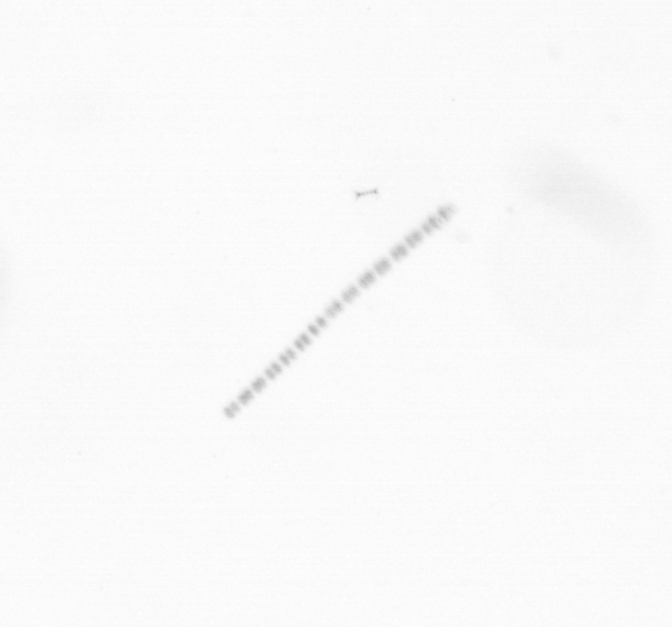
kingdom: Chromista
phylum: Ochrophyta
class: Bacillariophyceae
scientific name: Bacillariophyceae
